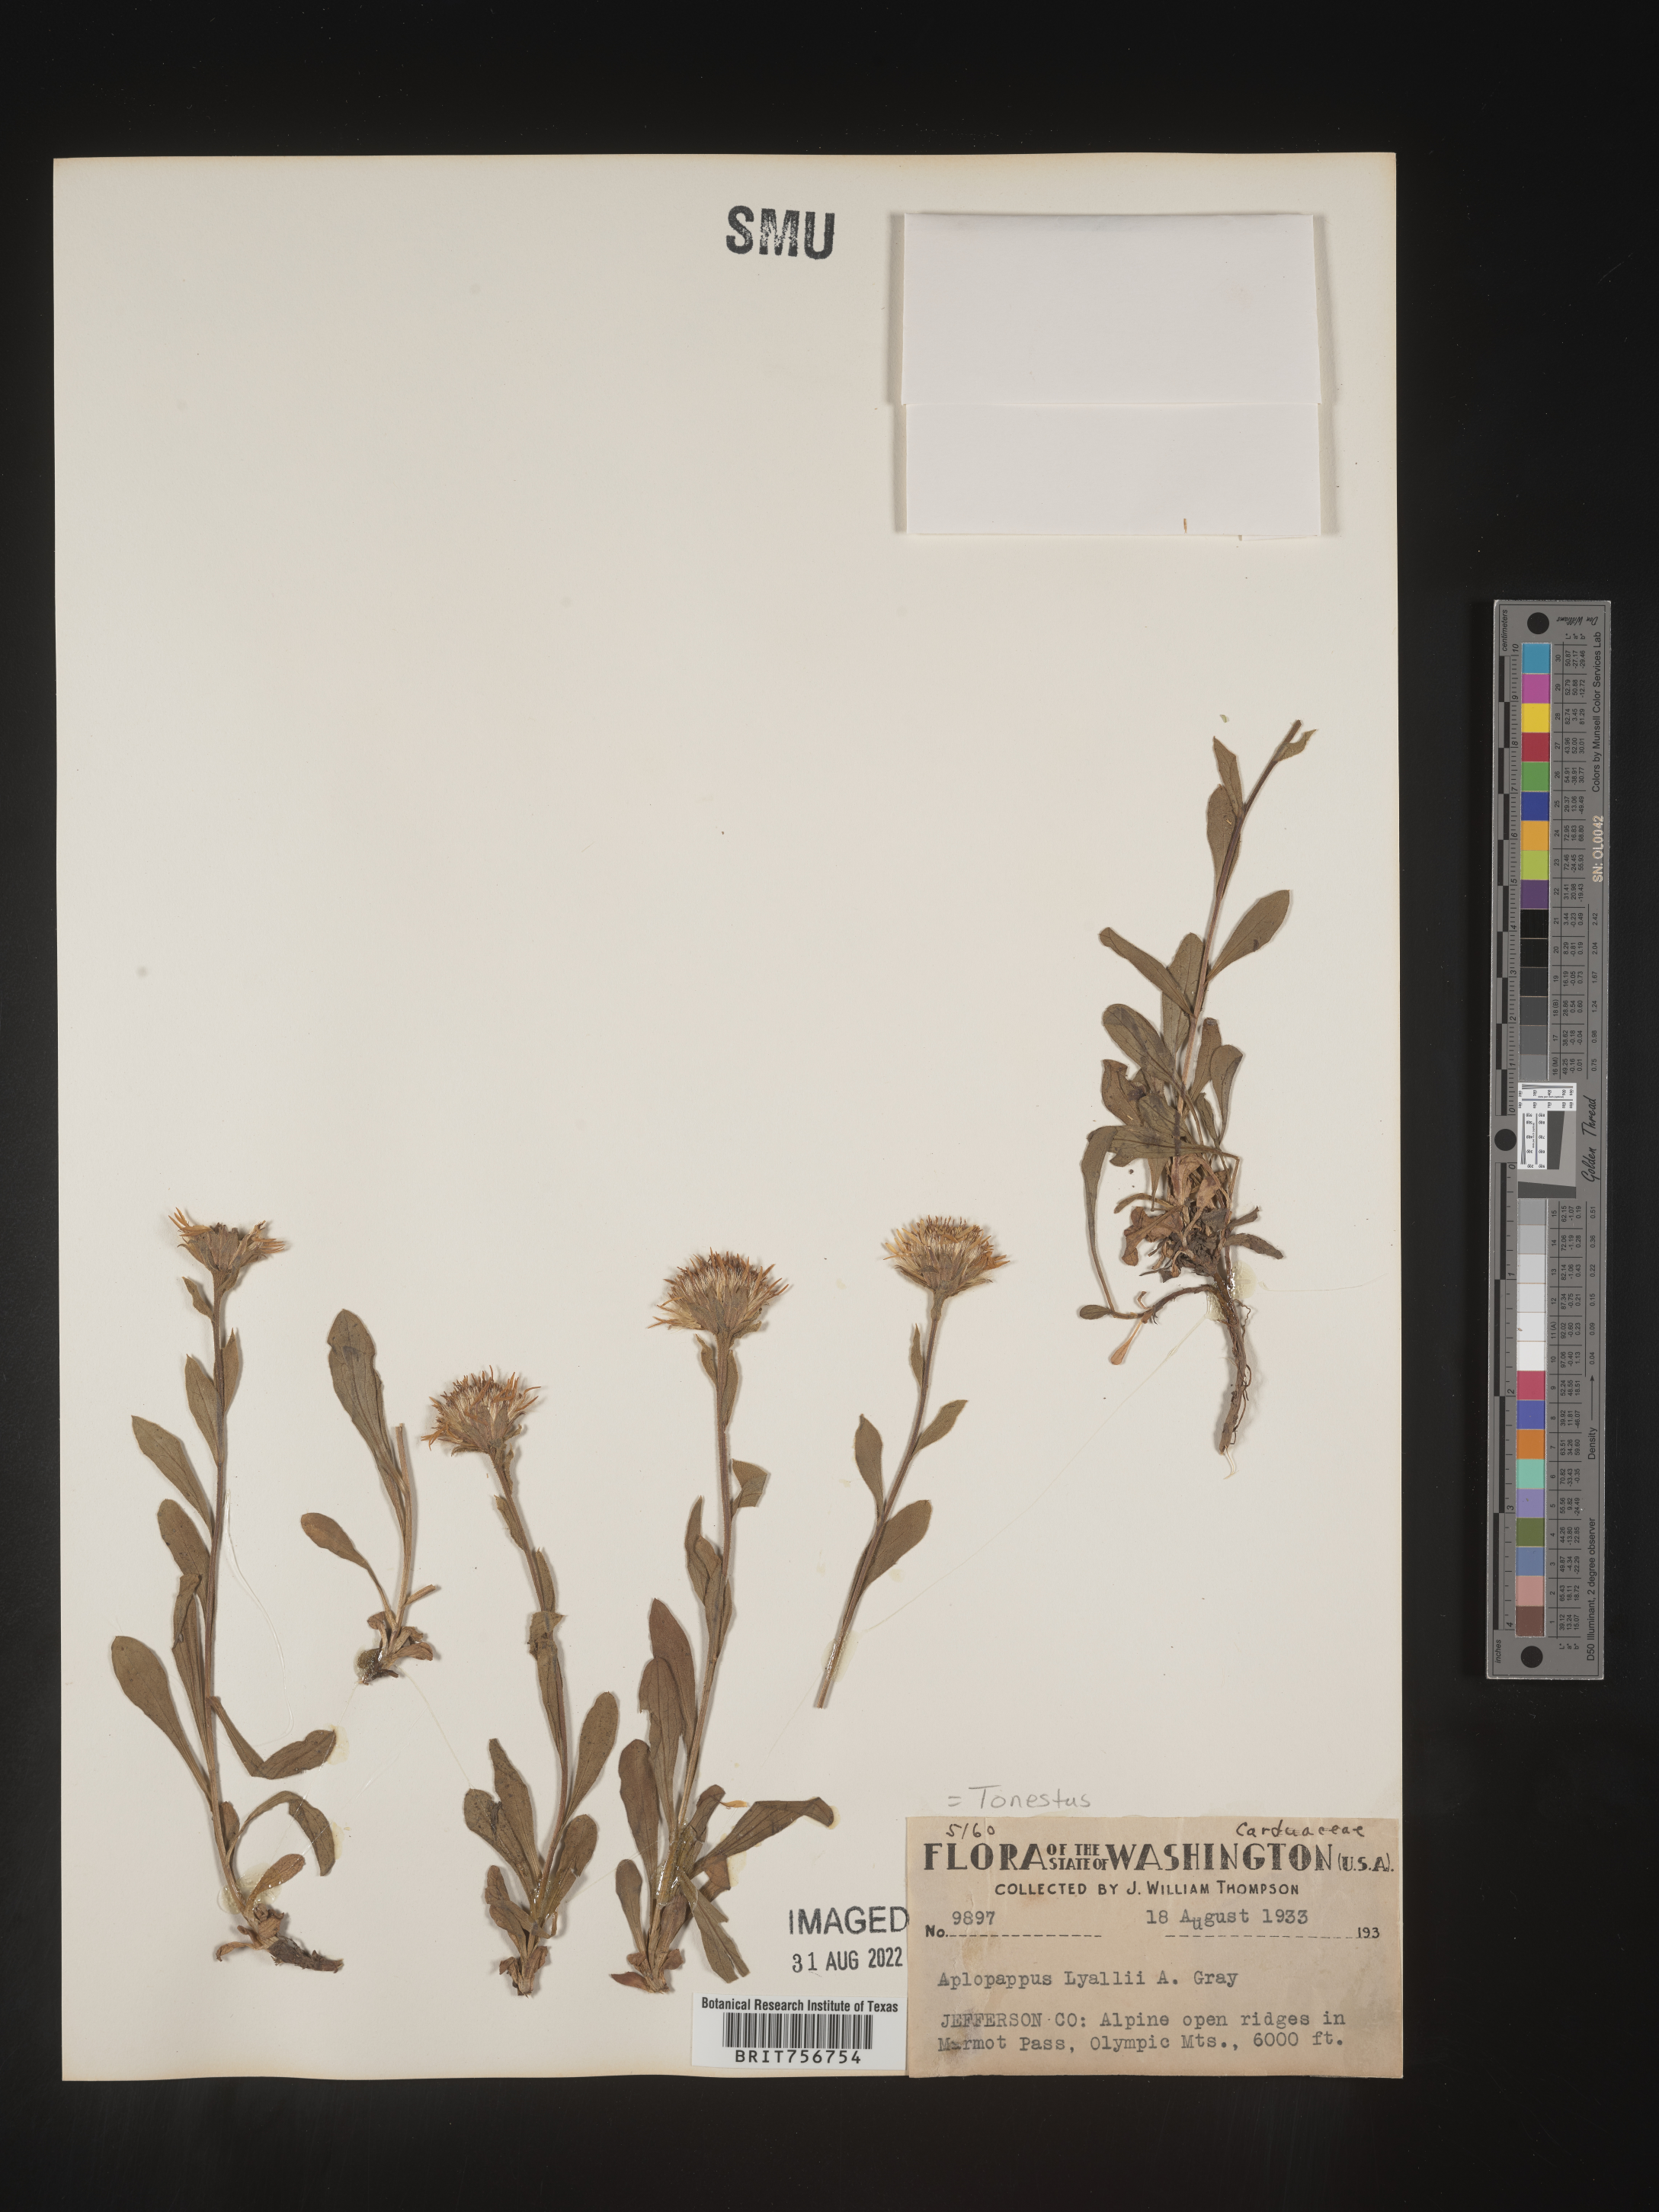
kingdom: Plantae
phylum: Tracheophyta
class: Magnoliopsida
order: Asterales
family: Asteraceae
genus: Tonestus
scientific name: Tonestus
